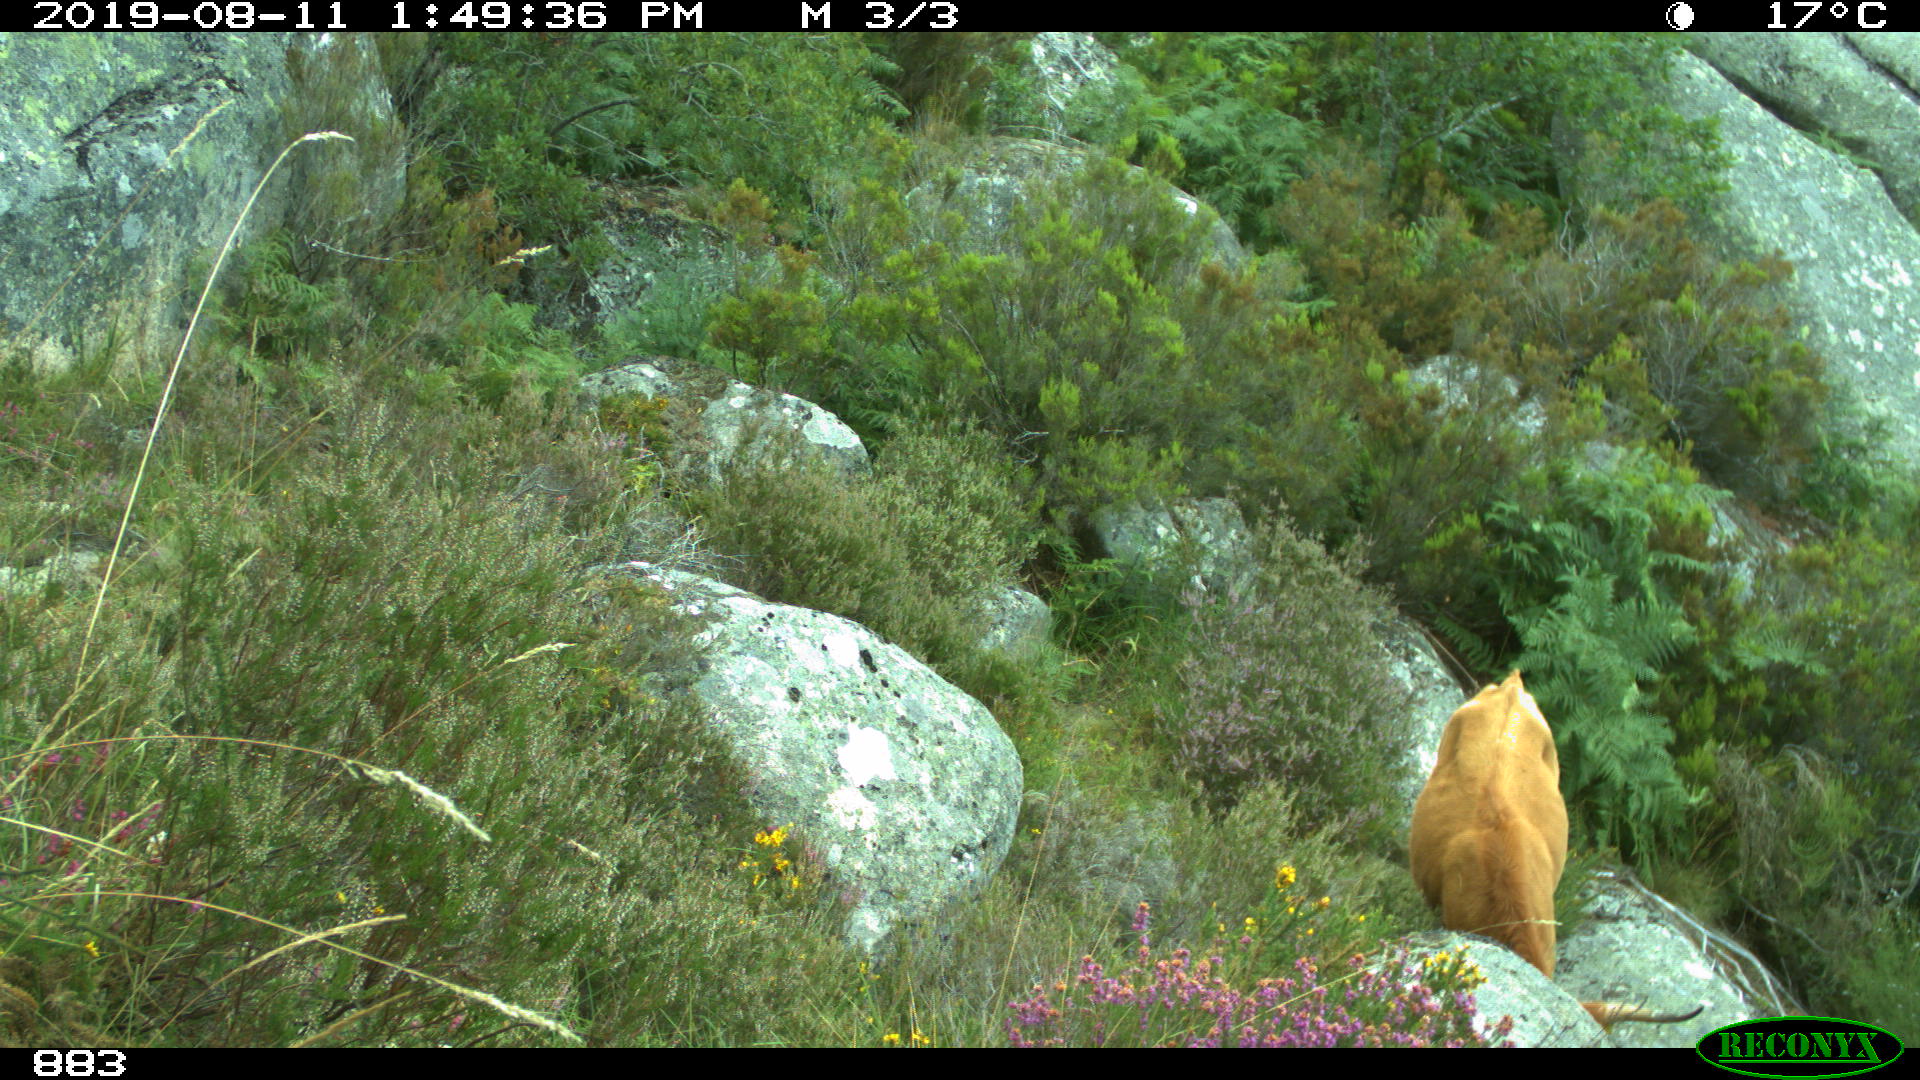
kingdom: Animalia
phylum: Chordata
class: Mammalia
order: Artiodactyla
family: Bovidae
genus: Bos
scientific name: Bos taurus
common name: Domesticated cattle
